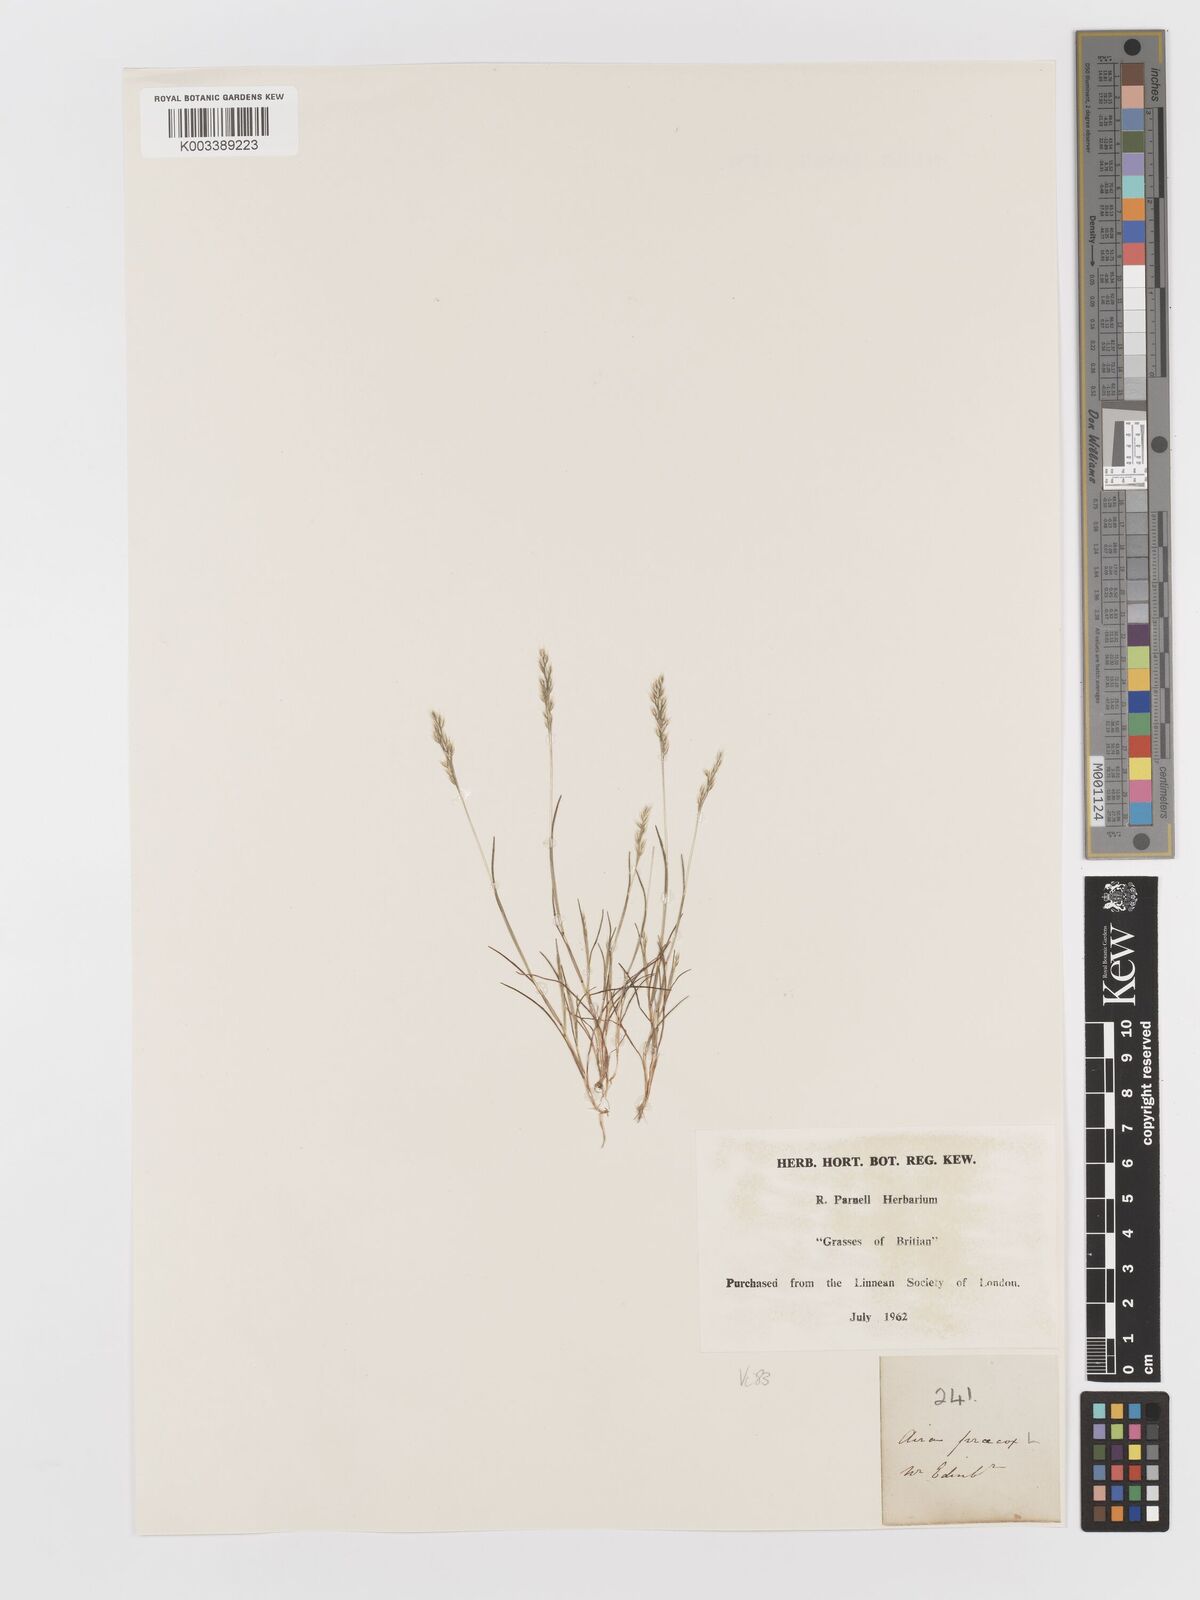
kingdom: Plantae
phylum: Tracheophyta
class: Liliopsida
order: Poales
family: Poaceae
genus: Aira
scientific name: Aira praecox
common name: Early hair-grass
